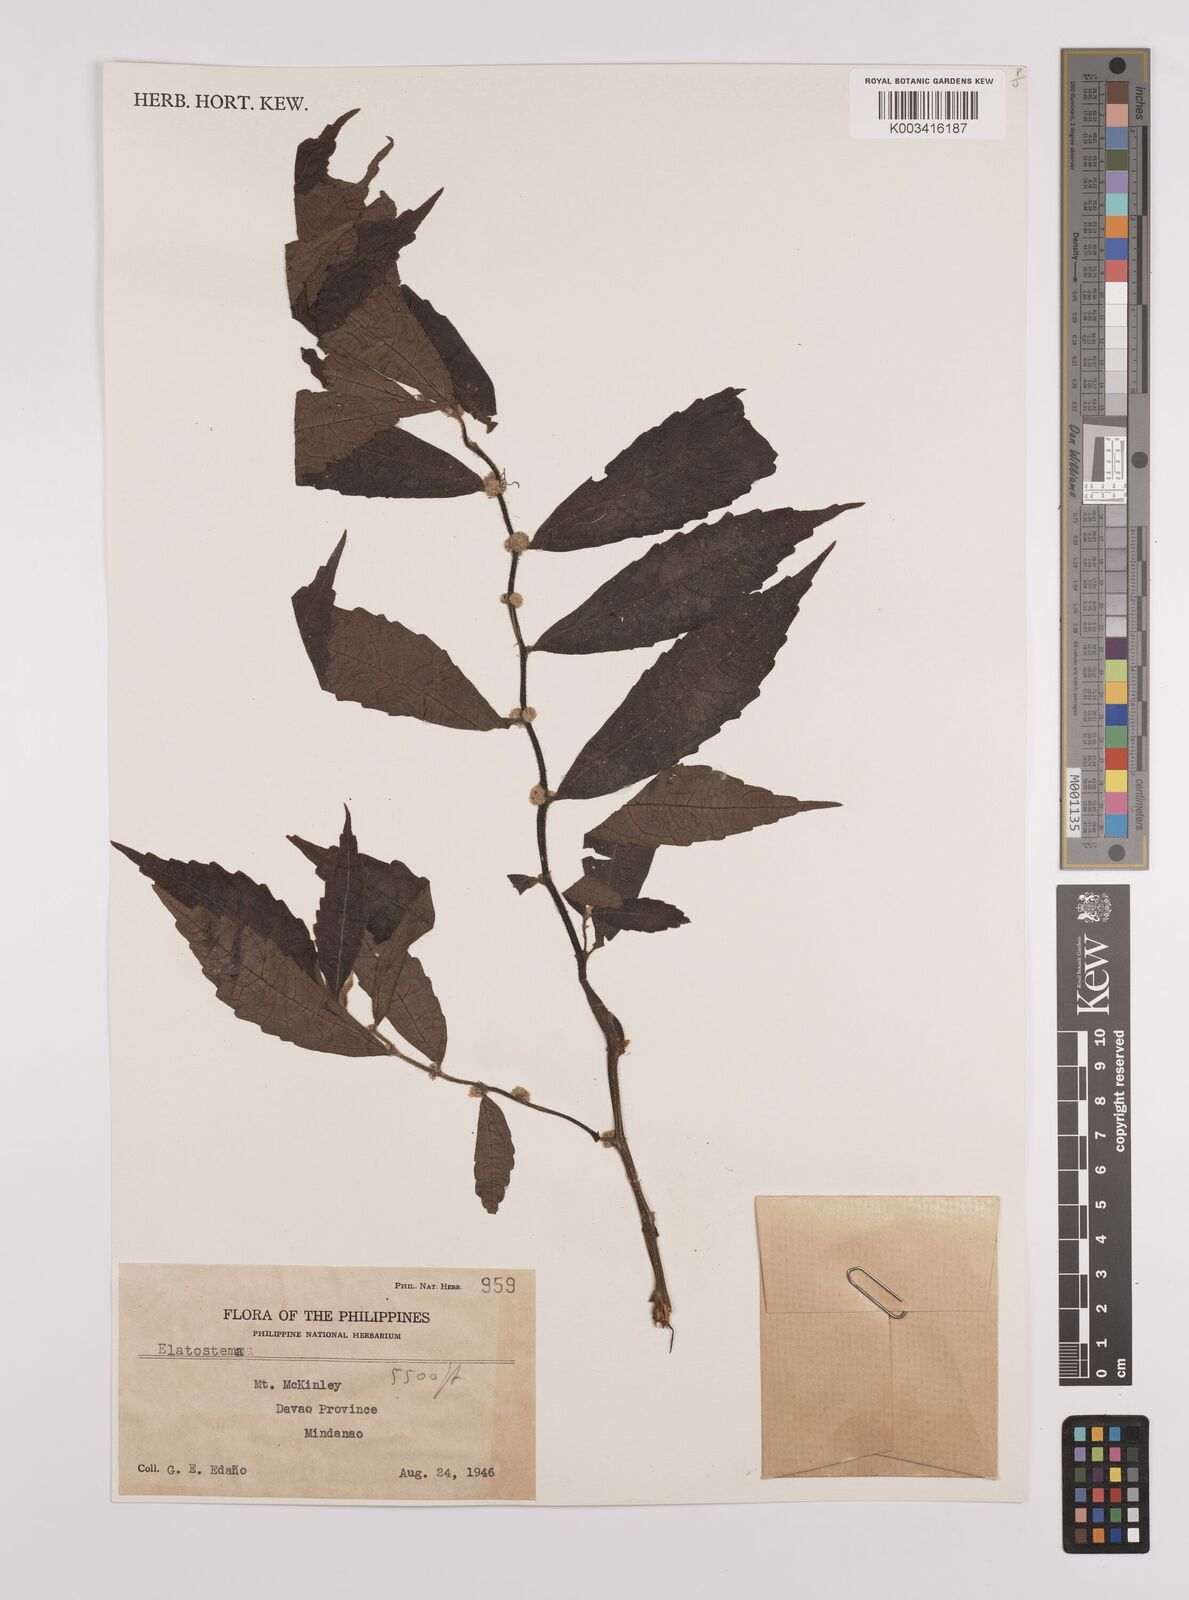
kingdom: Plantae
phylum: Tracheophyta
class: Magnoliopsida
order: Rosales
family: Urticaceae
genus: Elatostema
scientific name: Elatostema
